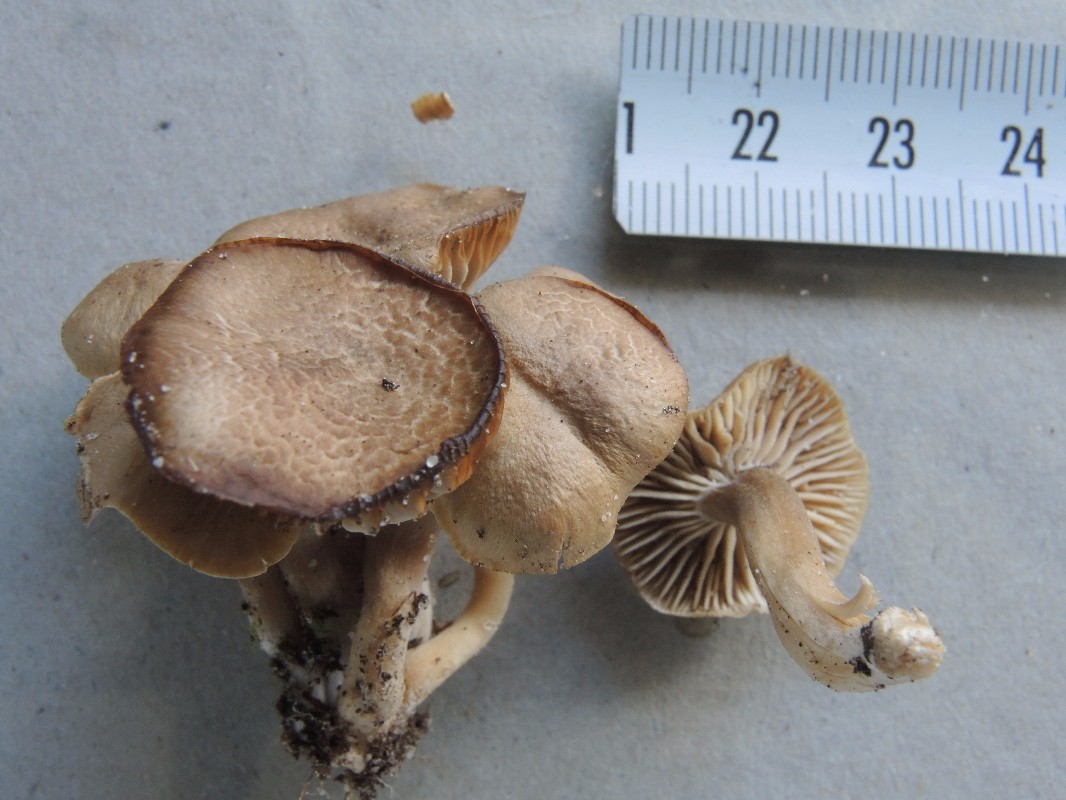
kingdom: Fungi
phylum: Basidiomycota
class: Agaricomycetes
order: Agaricales
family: Clavariaceae
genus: Camarophyllopsis
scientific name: Camarophyllopsis schulzeri
